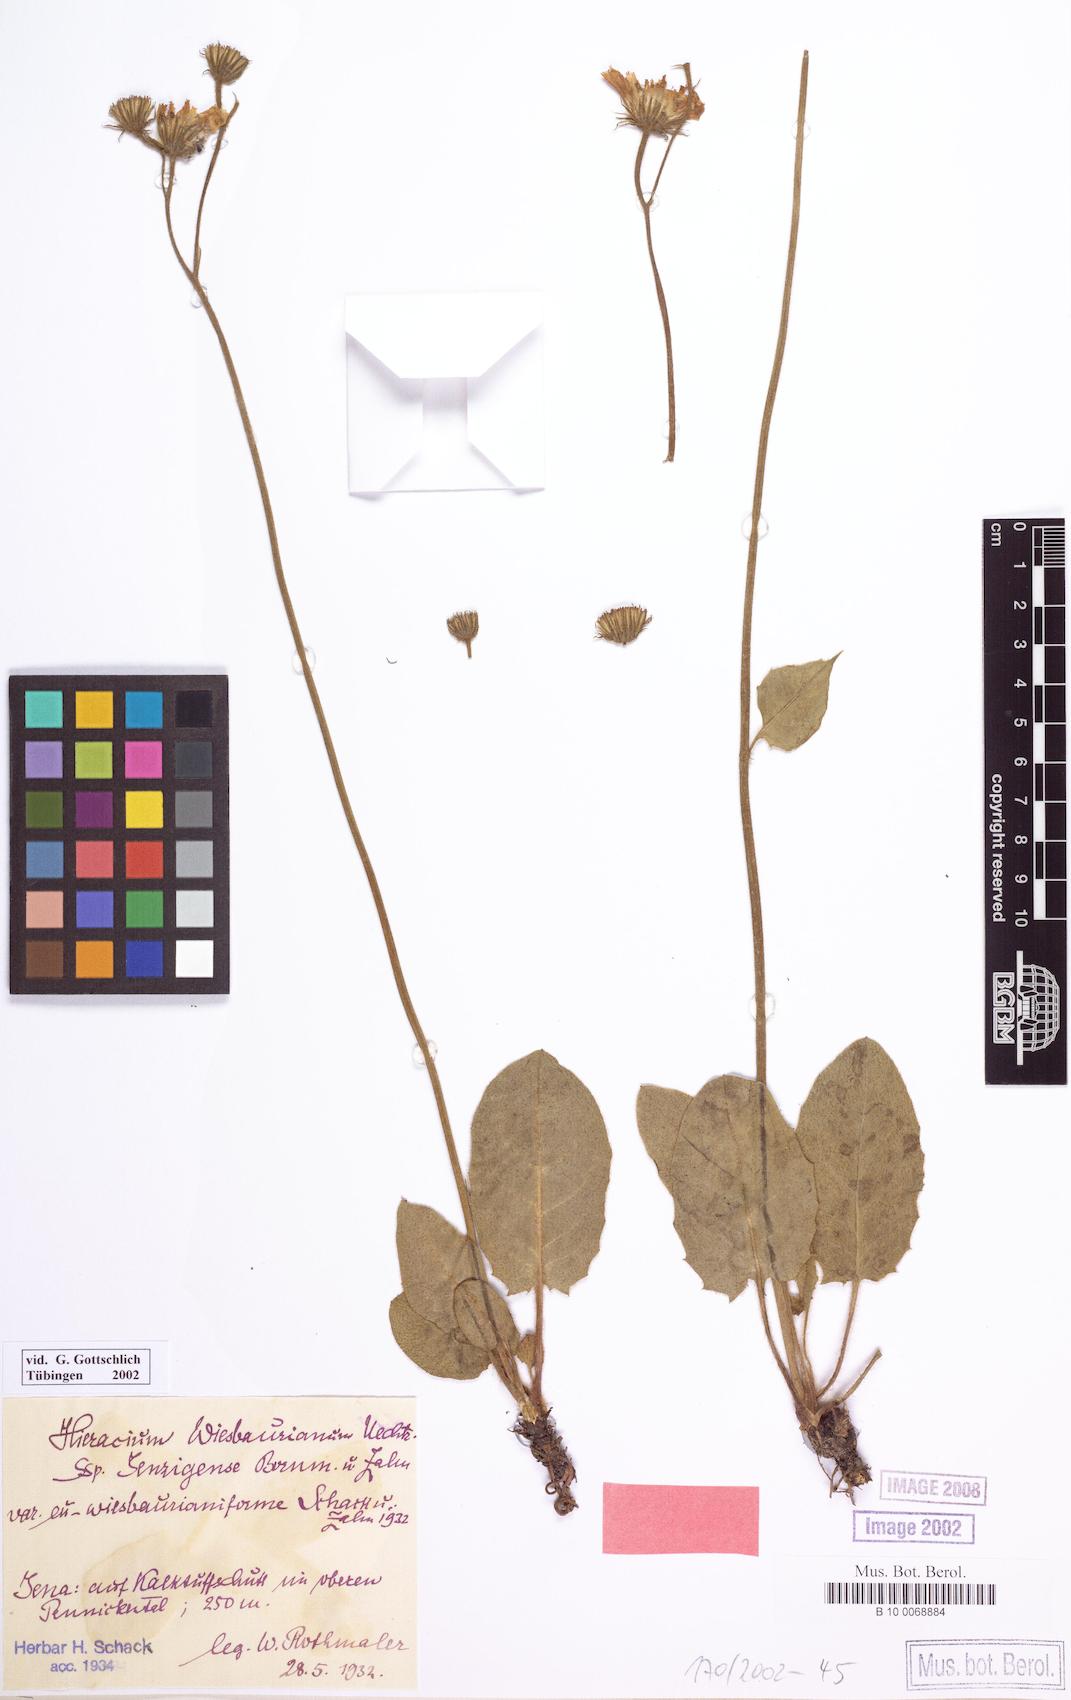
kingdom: Plantae
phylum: Tracheophyta
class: Magnoliopsida
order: Asterales
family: Asteraceae
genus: Hieracium
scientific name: Hieracium hypochoeroides
